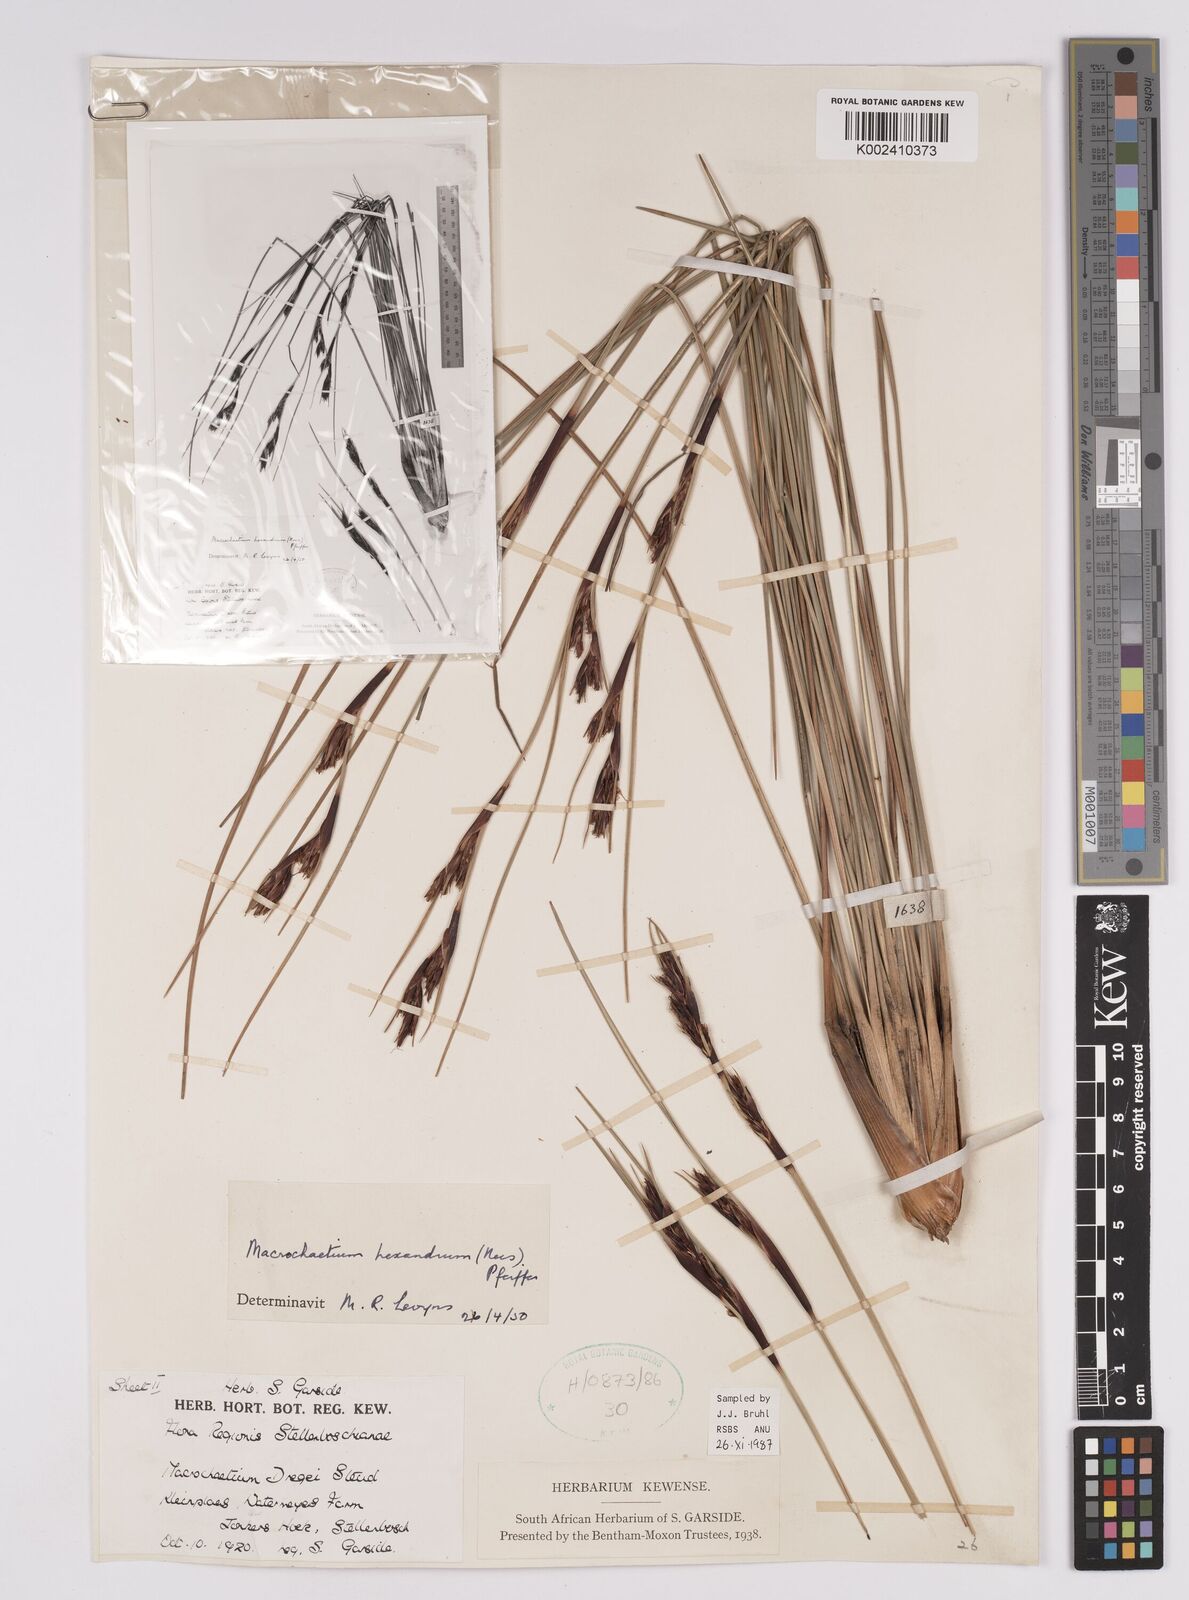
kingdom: Plantae
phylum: Tracheophyta
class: Liliopsida
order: Poales
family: Cyperaceae
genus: Cyathocoma
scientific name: Cyathocoma hexandra
